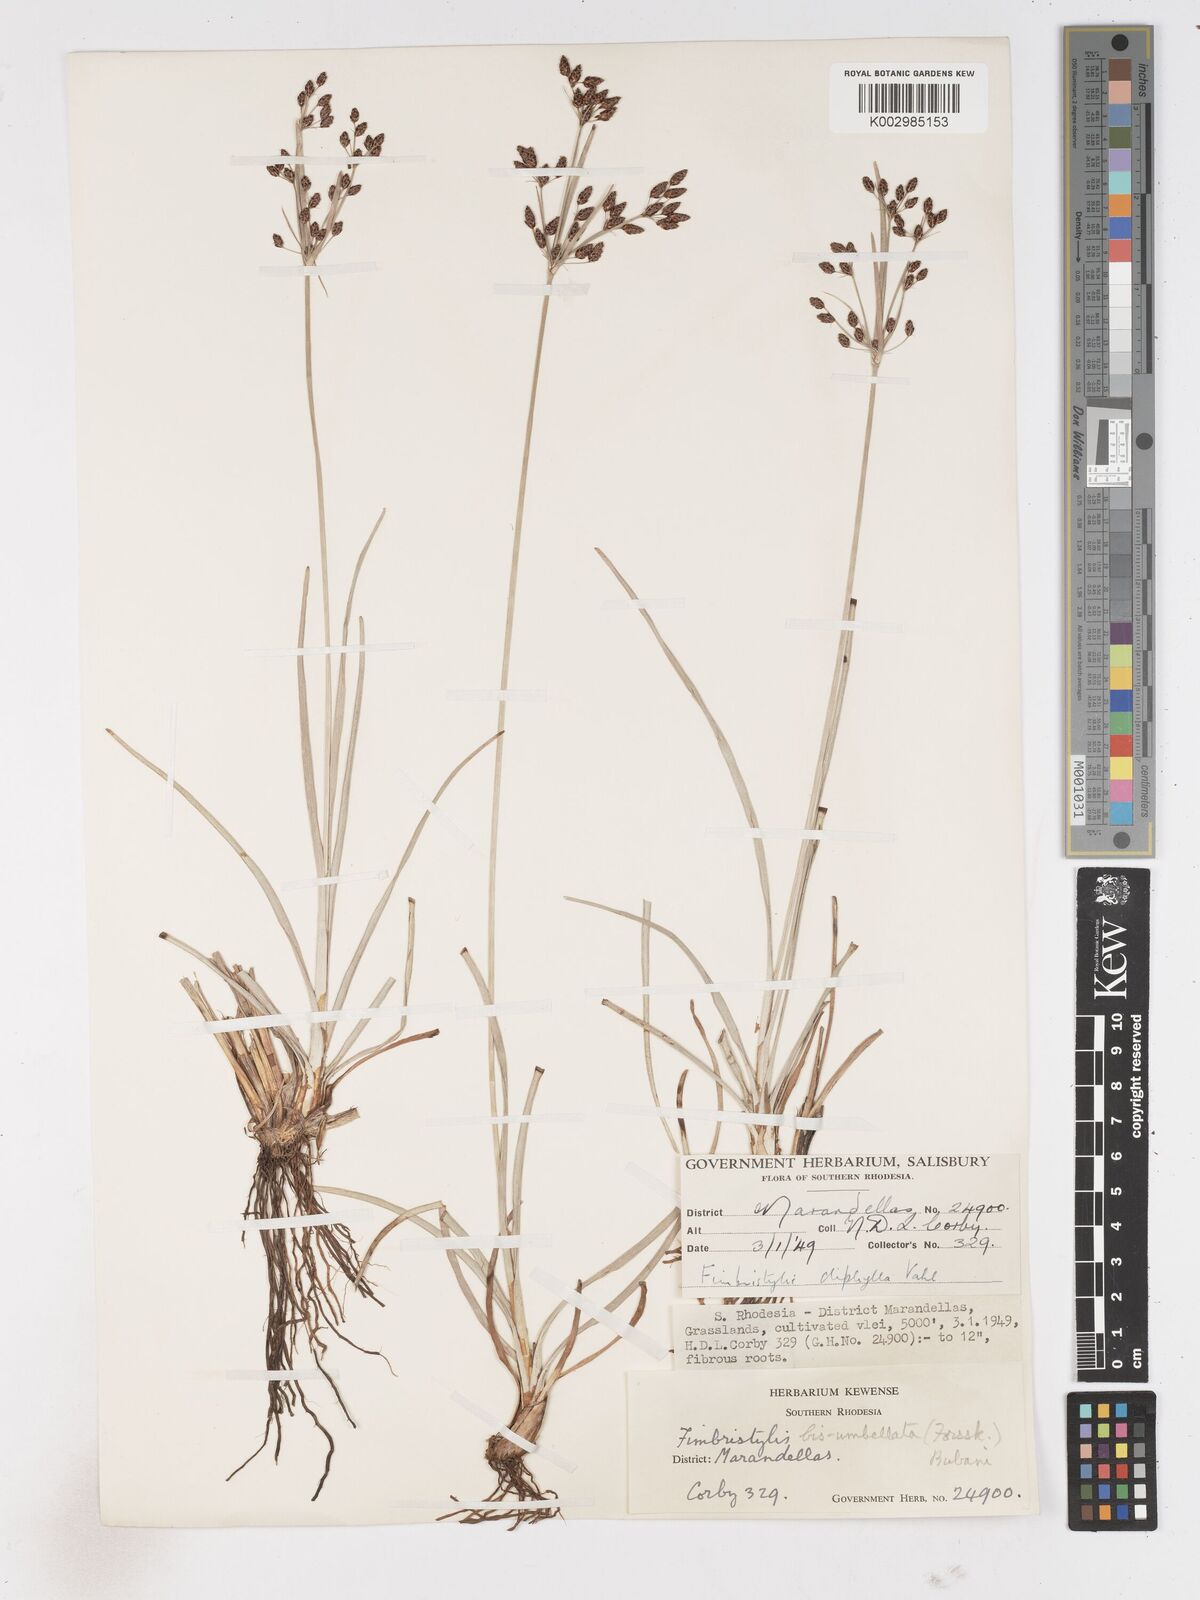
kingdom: Plantae
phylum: Tracheophyta
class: Liliopsida
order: Poales
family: Cyperaceae
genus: Fimbristylis
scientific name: Fimbristylis dichotoma
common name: Forked fimbry
